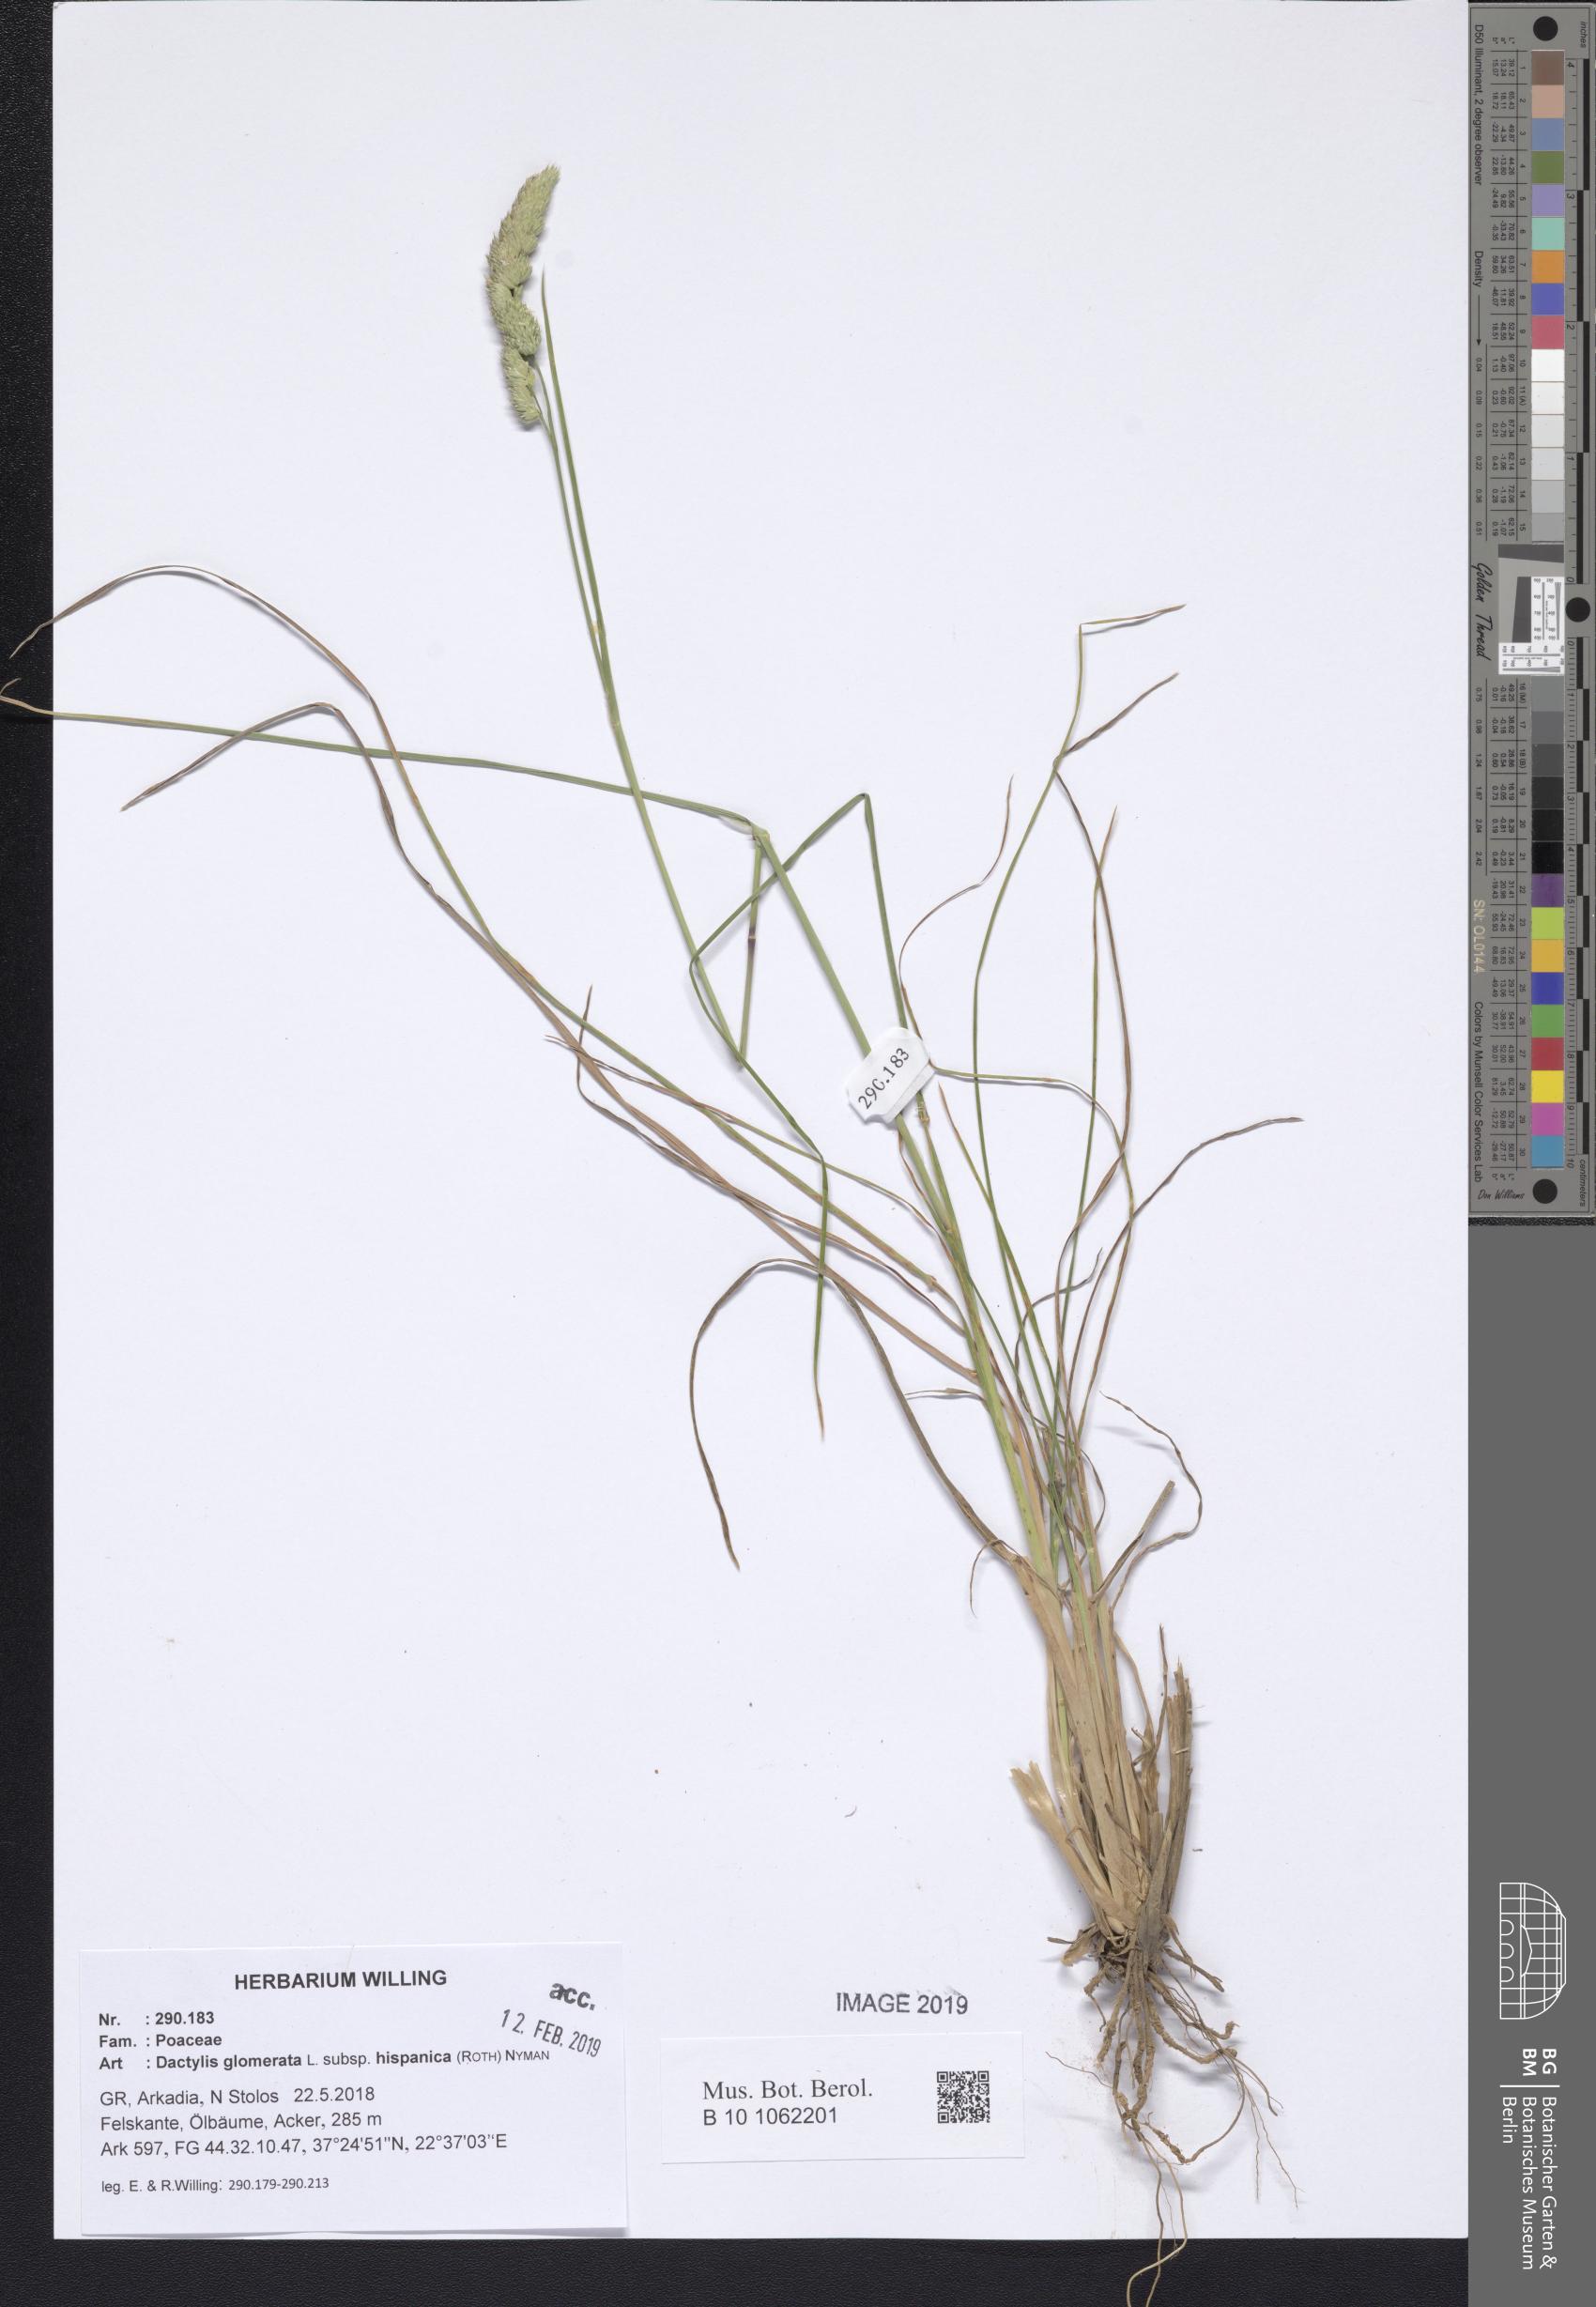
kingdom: Plantae
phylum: Tracheophyta
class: Liliopsida
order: Poales
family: Poaceae
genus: Dactylis
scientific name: Dactylis glomerata
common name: Orchardgrass
